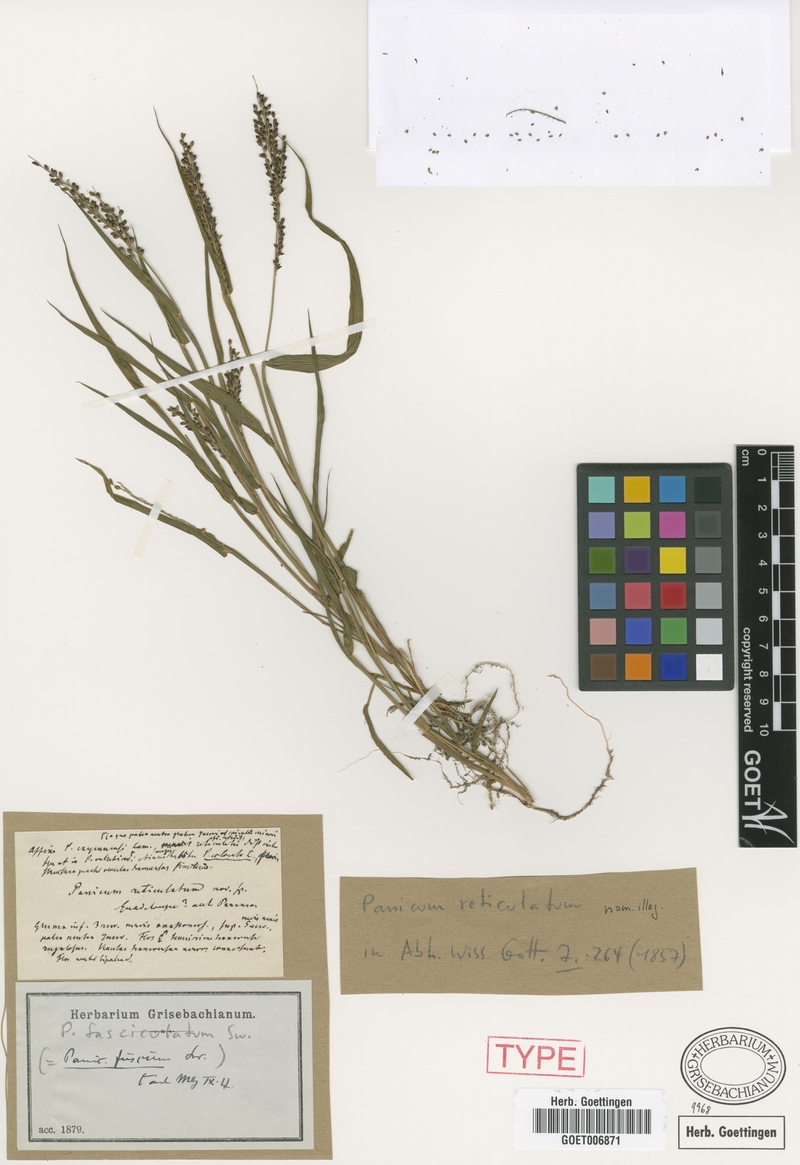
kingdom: Plantae
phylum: Tracheophyta
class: Liliopsida
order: Poales
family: Poaceae
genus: Urochloa
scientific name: Urochloa fusca
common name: Browntop signal grass
